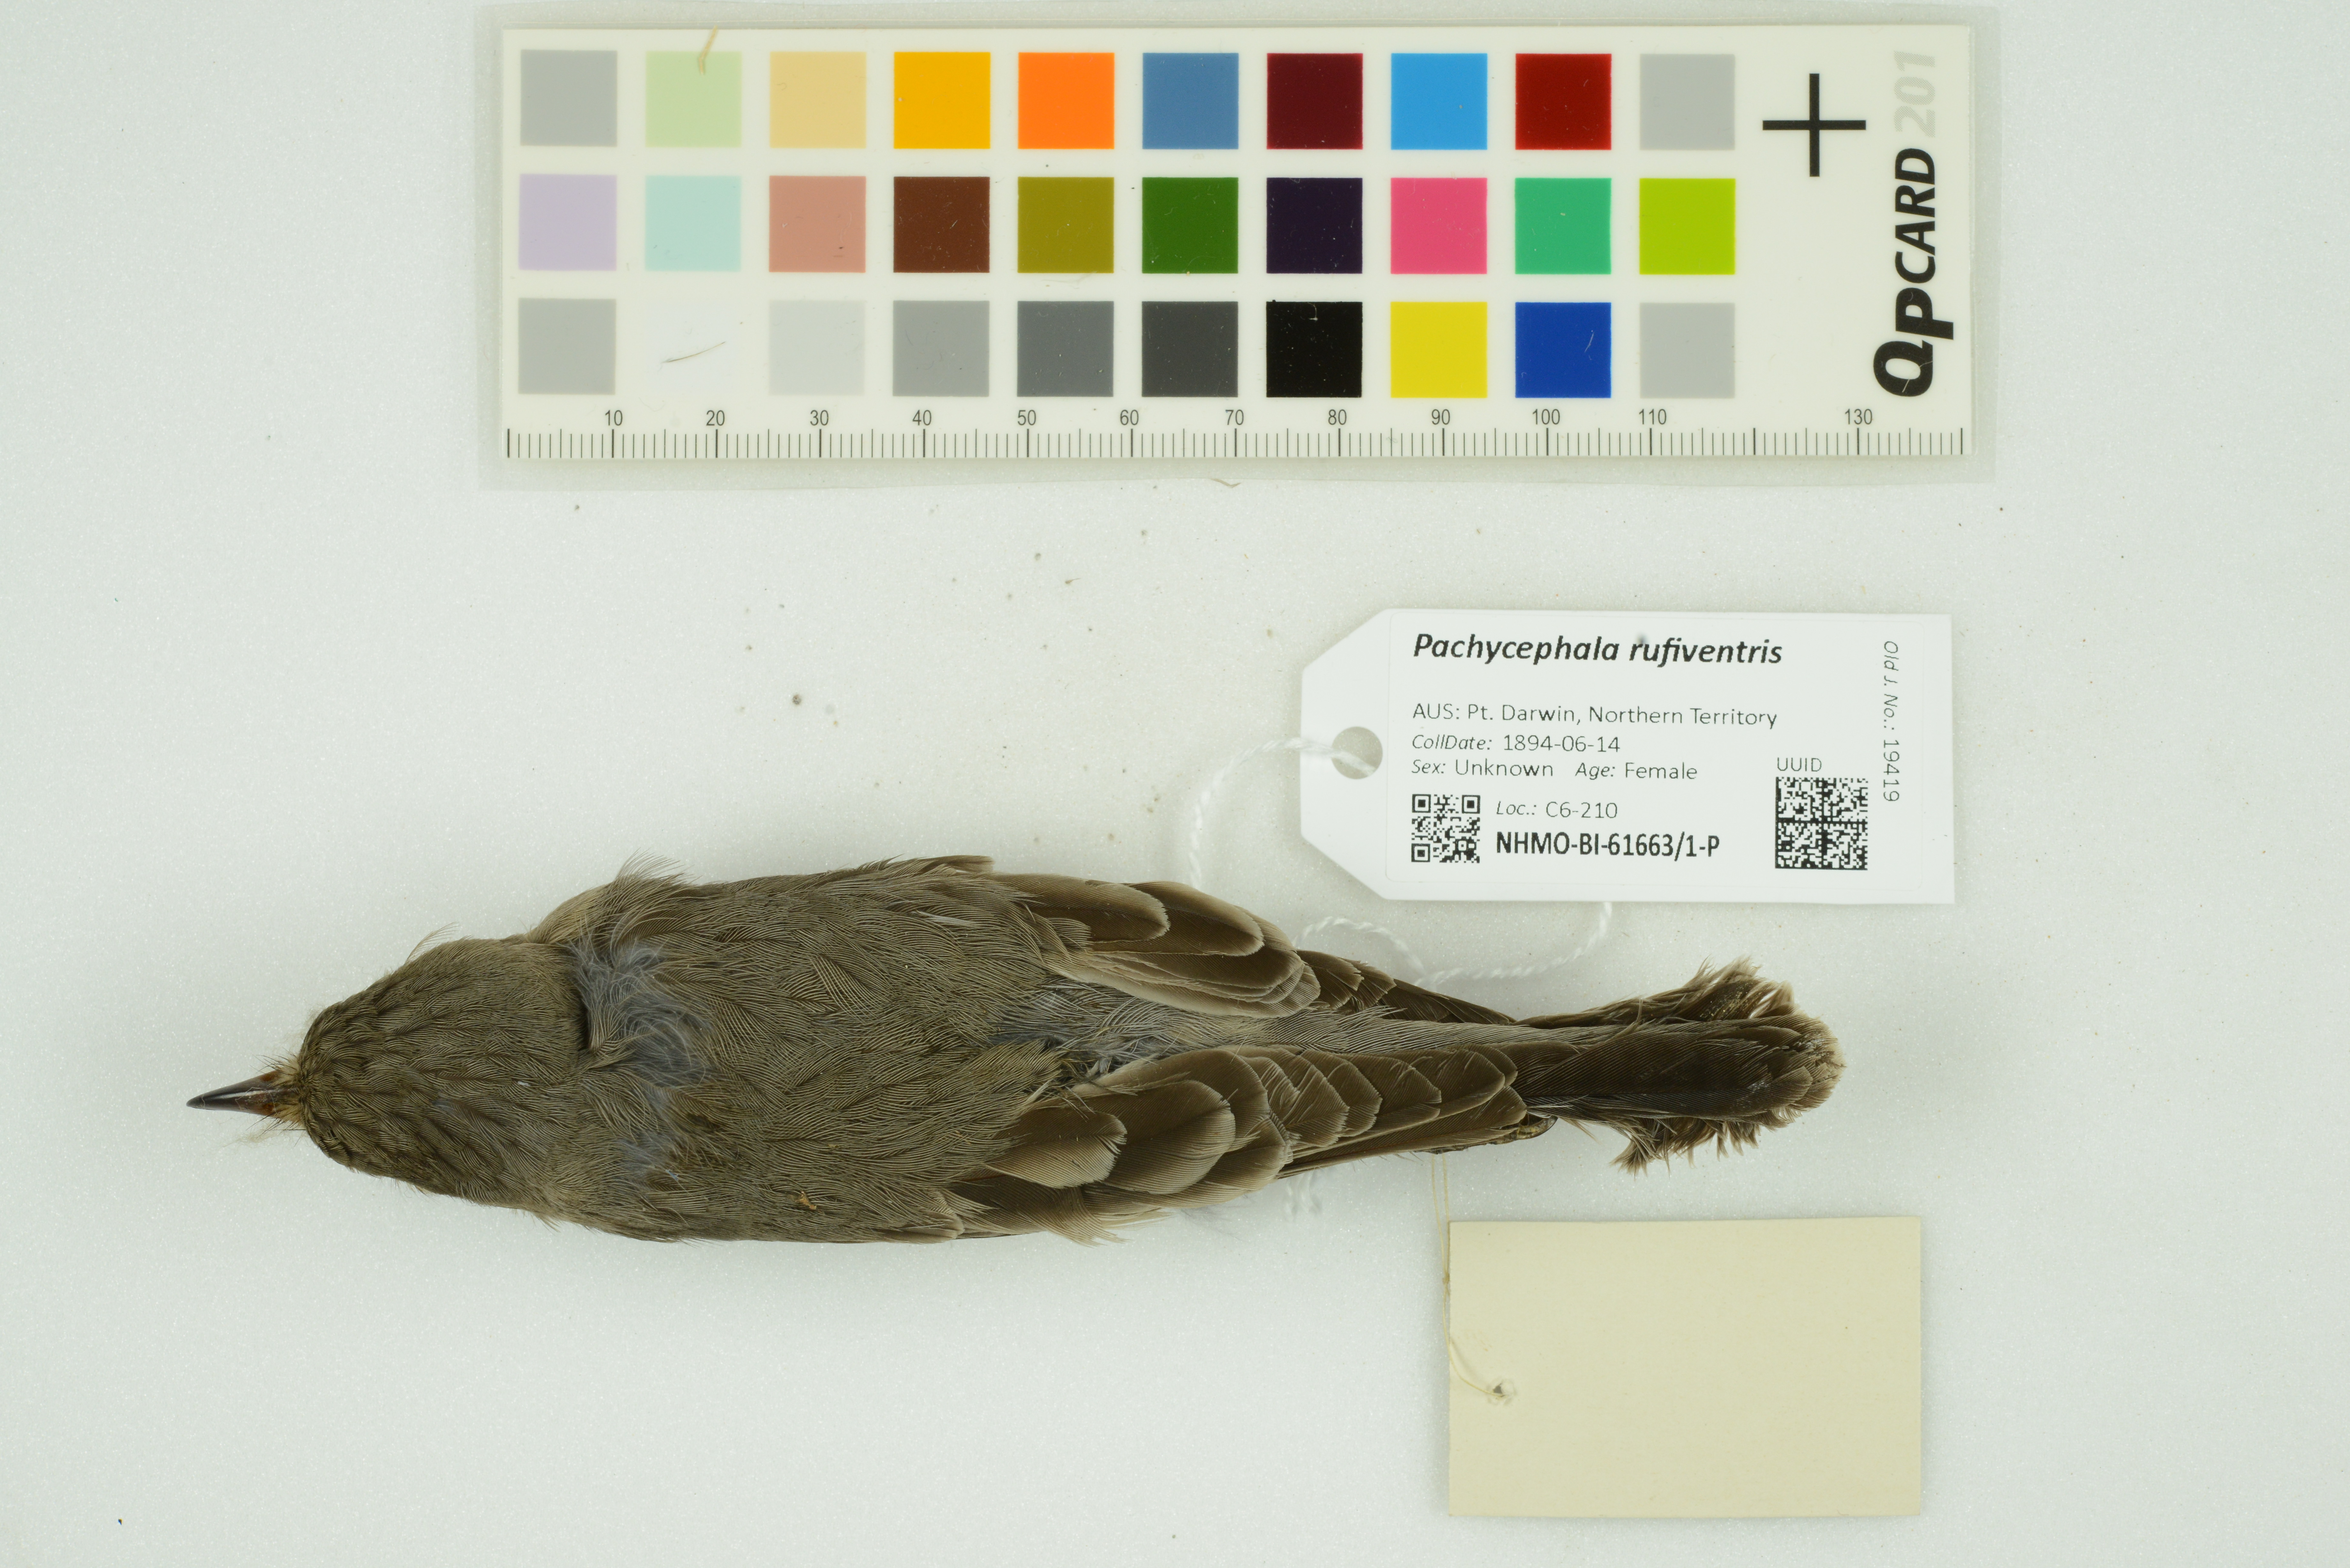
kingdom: Animalia
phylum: Chordata
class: Aves
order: Passeriformes
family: Pachycephalidae
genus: Pachycephala
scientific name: Pachycephala rufiventris
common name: Rufous whistler
